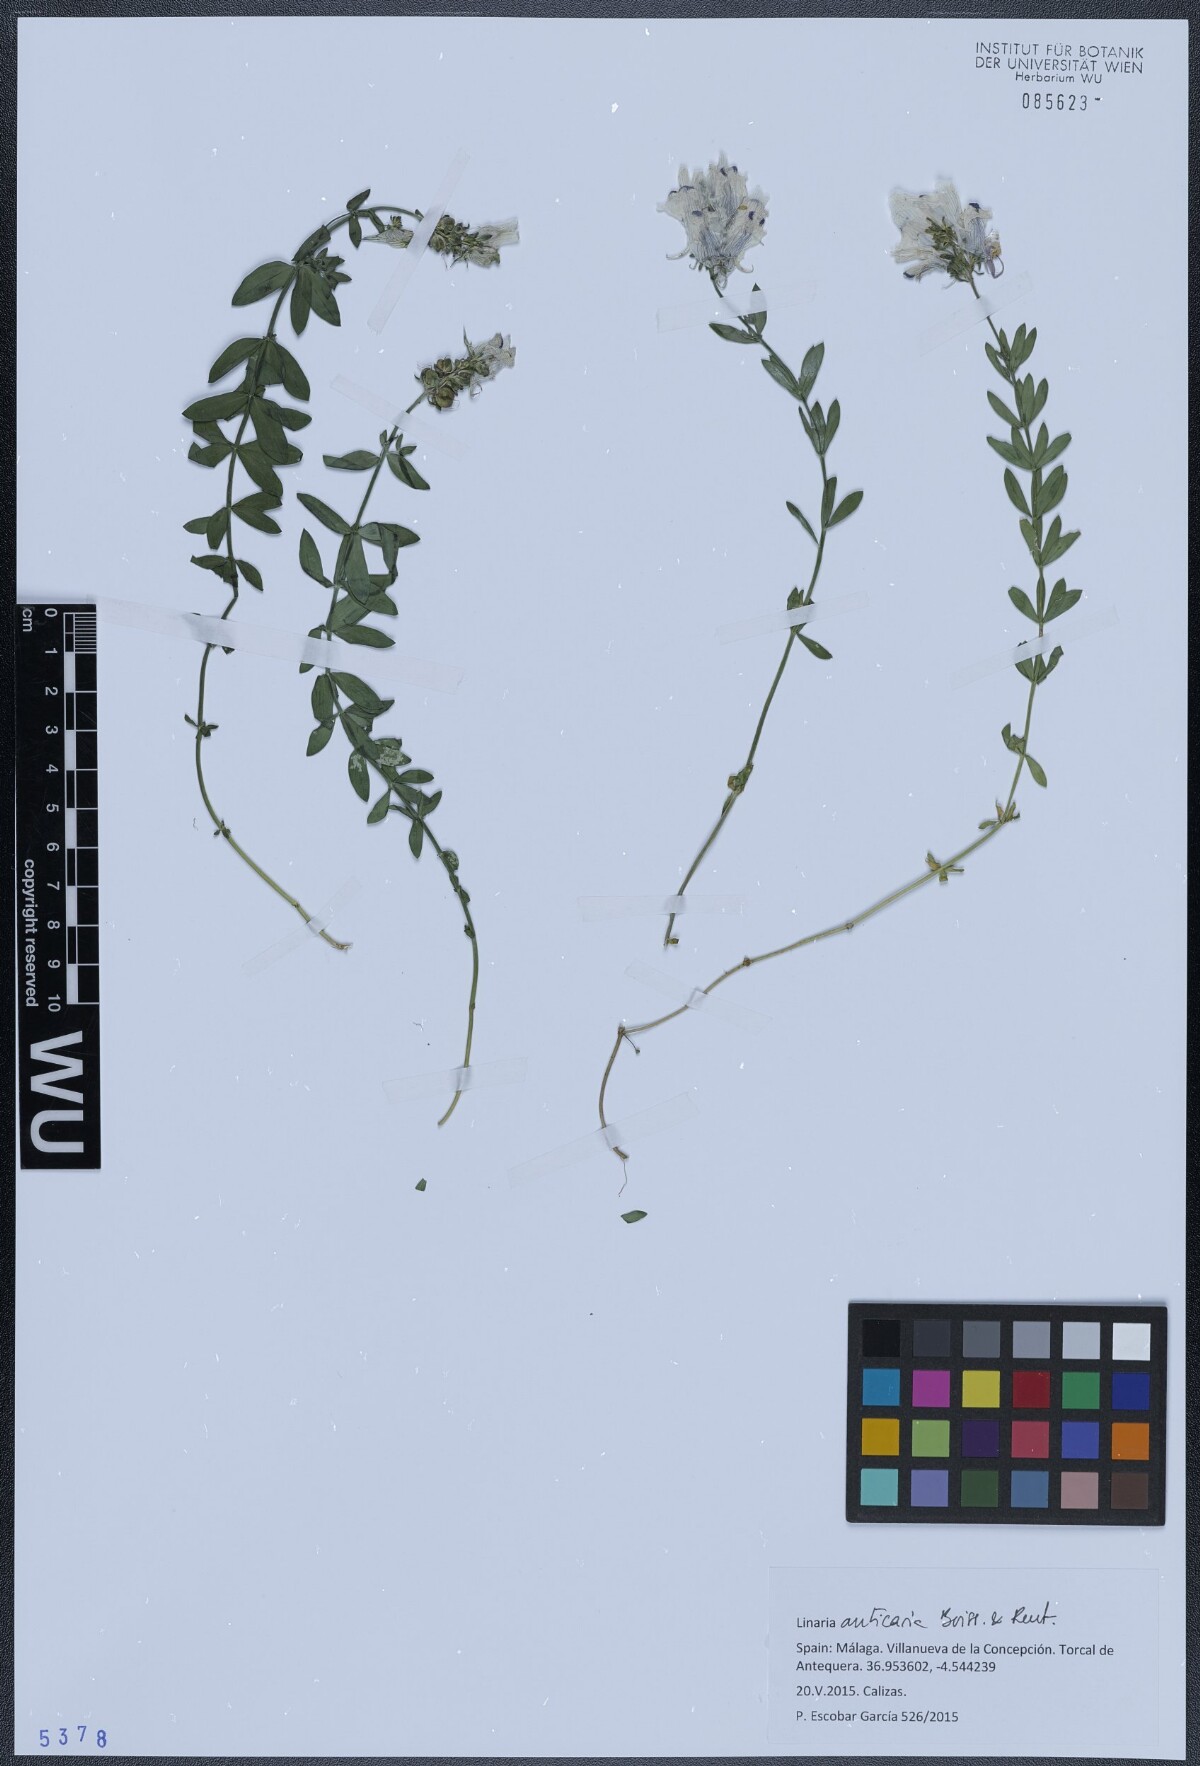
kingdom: Plantae
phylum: Tracheophyta
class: Magnoliopsida
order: Lamiales
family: Plantaginaceae
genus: Linaria
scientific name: Linaria verticillata
